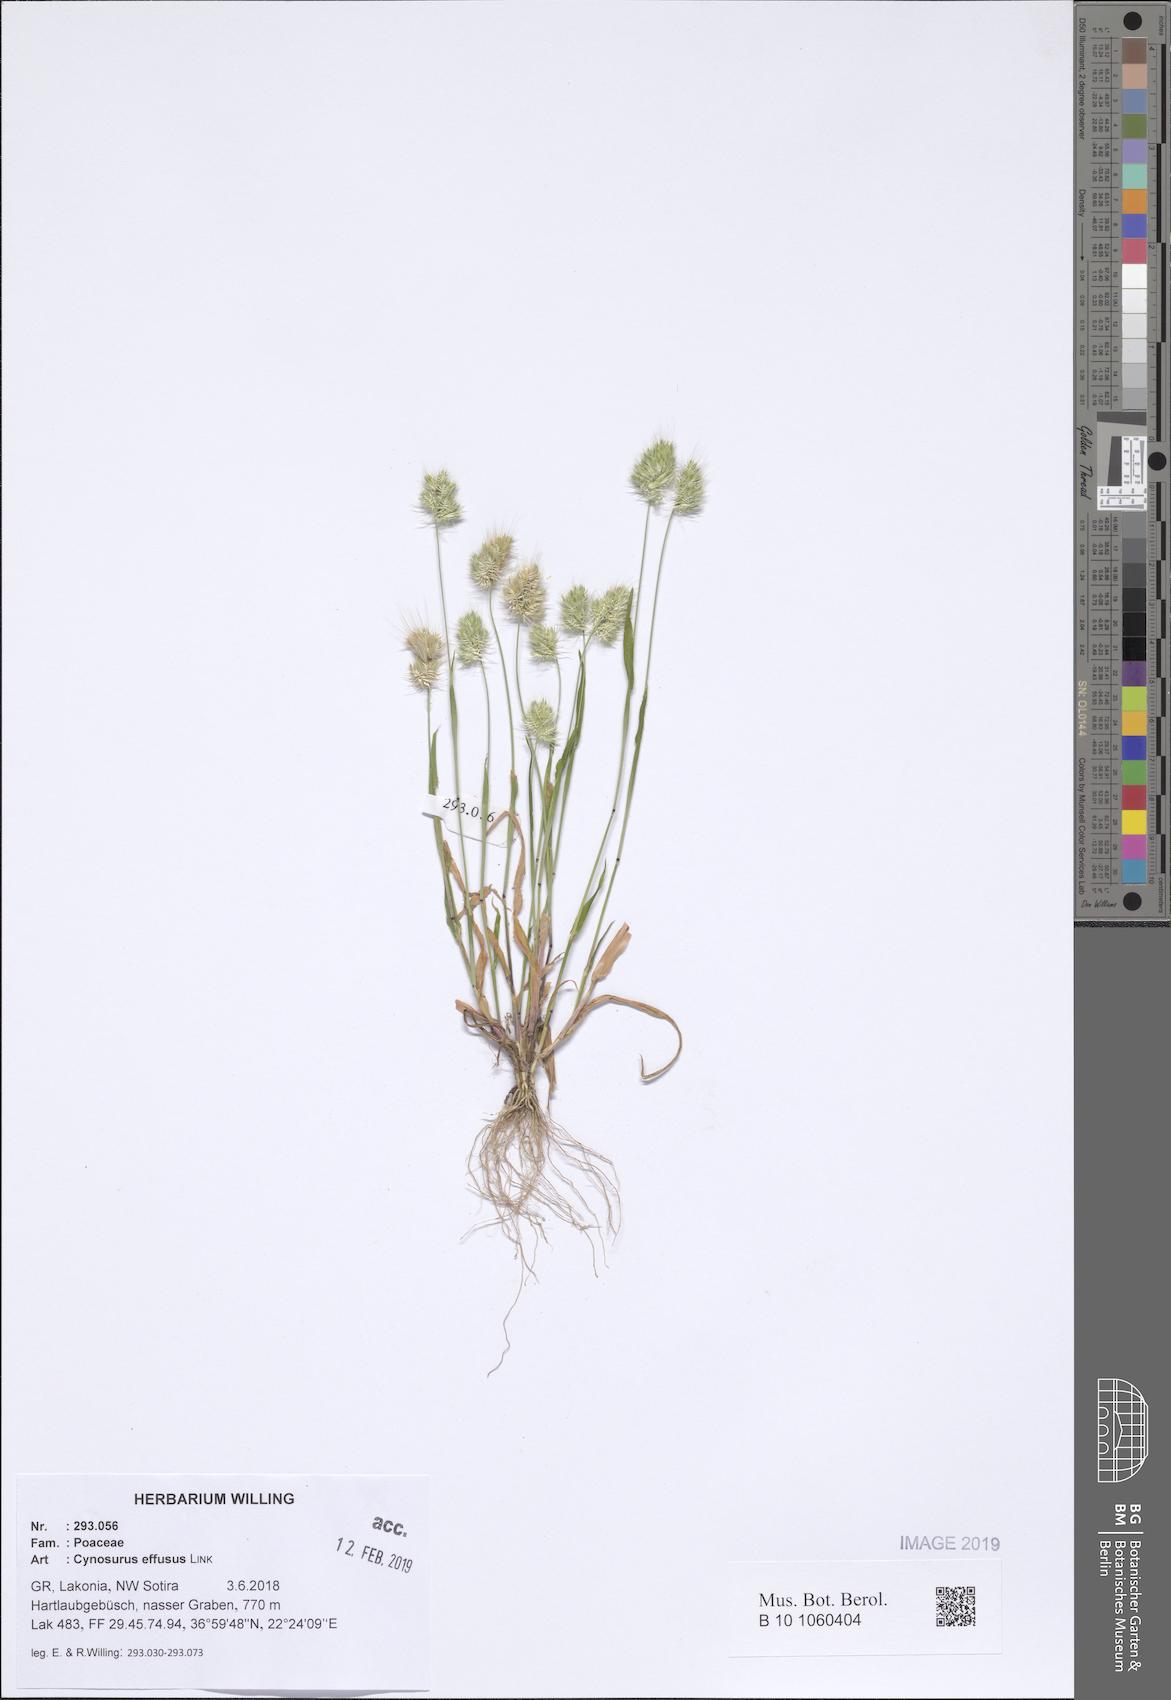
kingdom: Plantae
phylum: Tracheophyta
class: Liliopsida
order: Poales
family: Poaceae
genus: Cynosurus
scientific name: Cynosurus effusus
